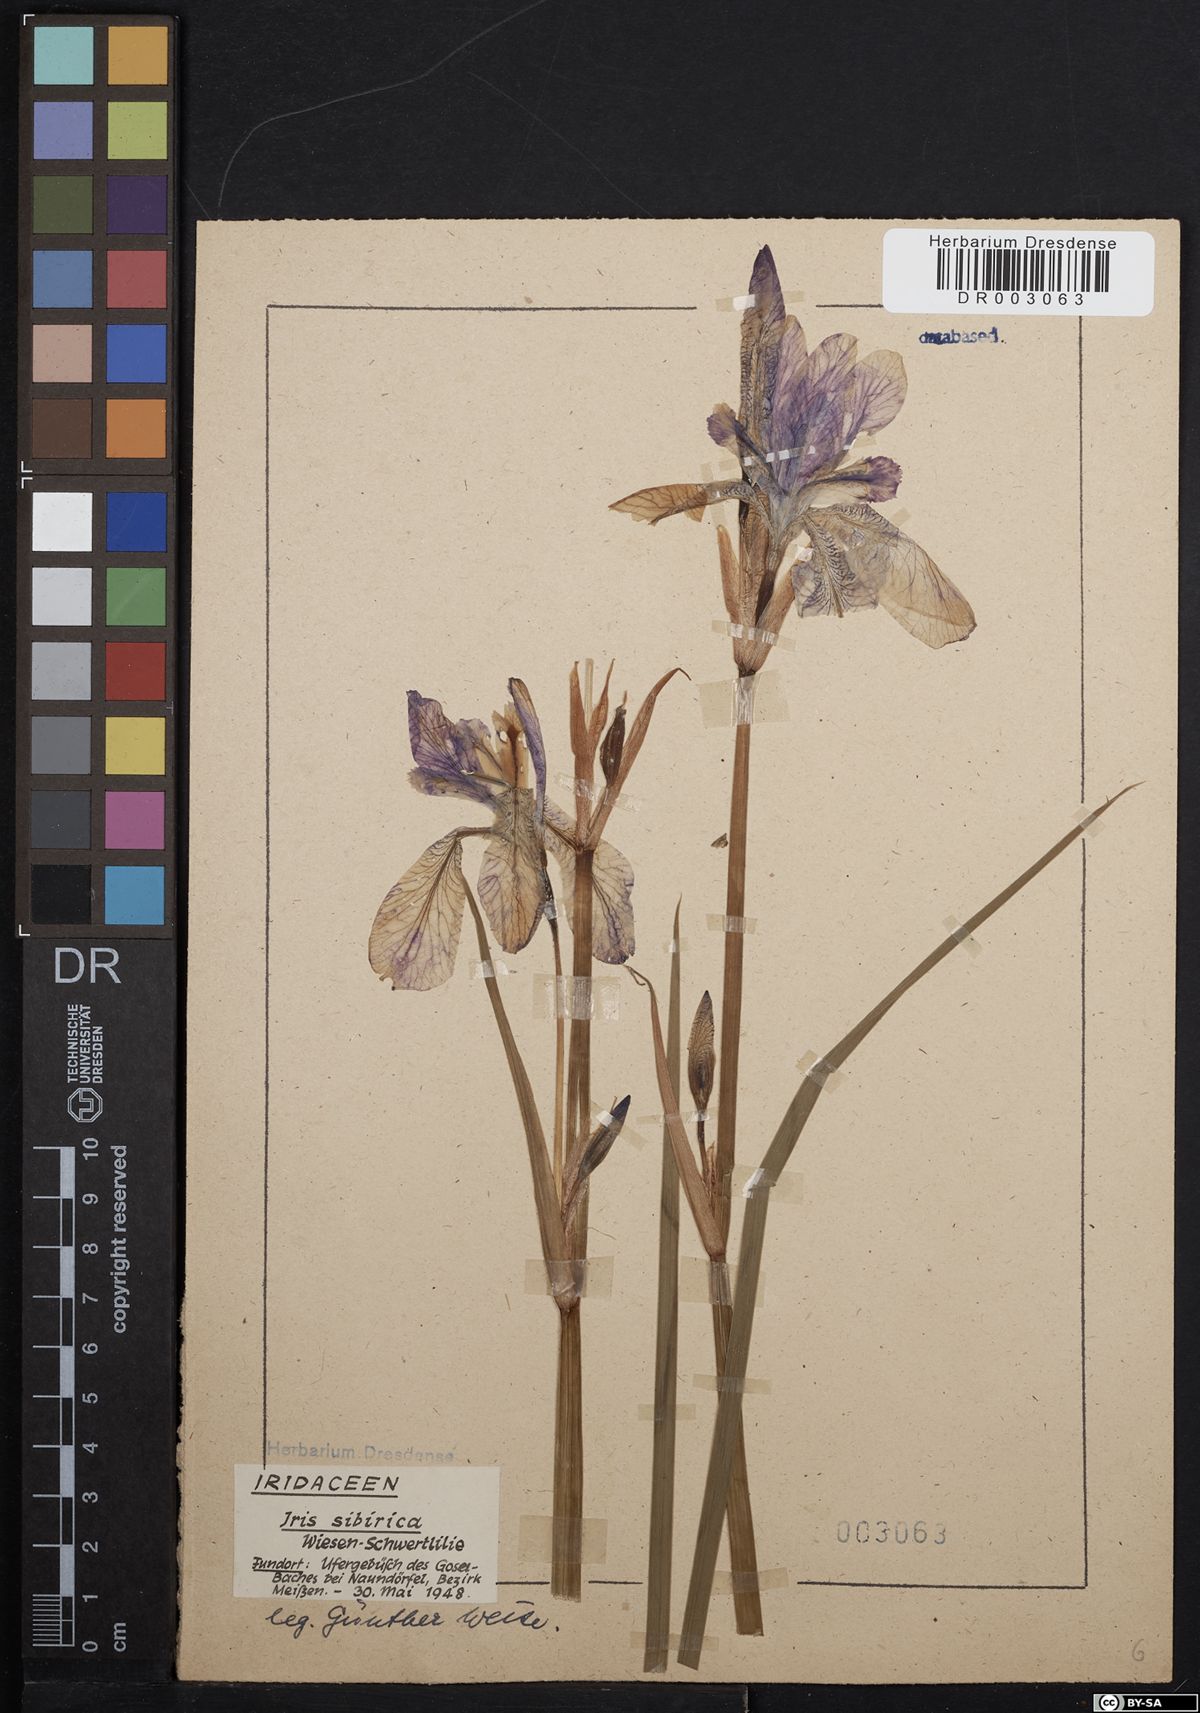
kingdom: Plantae
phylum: Tracheophyta
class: Liliopsida
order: Asparagales
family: Iridaceae
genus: Iris
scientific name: Iris sibirica
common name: Siberian iris
